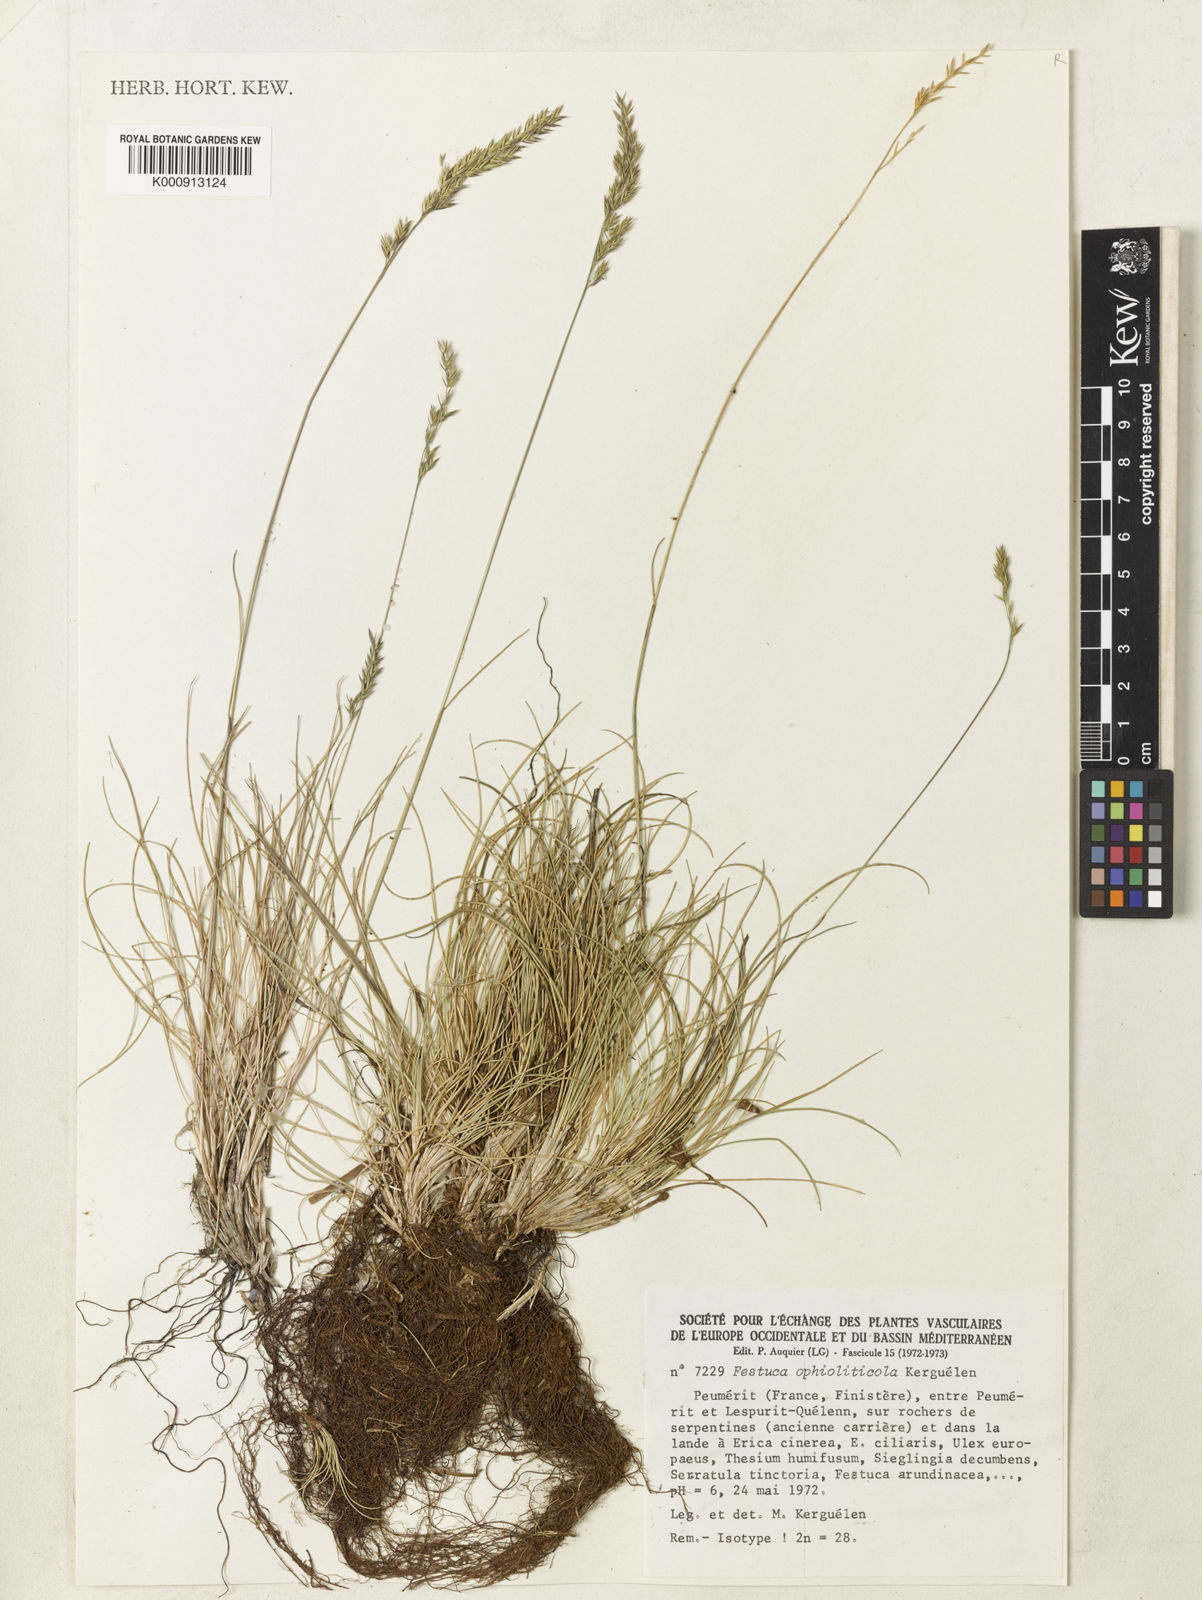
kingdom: Plantae
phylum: Tracheophyta
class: Liliopsida
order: Poales
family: Poaceae
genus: Festuca
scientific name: Festuca ovina
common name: Sheep fescue
